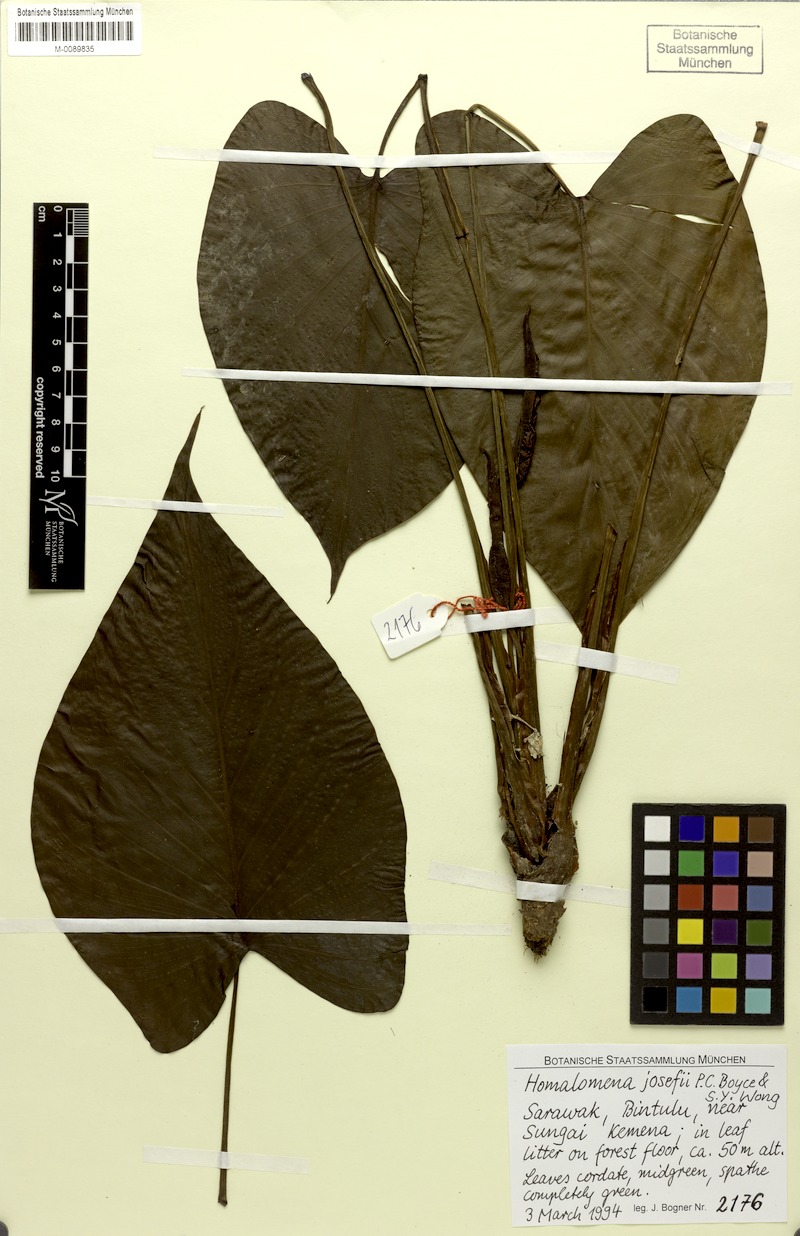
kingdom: Plantae
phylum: Tracheophyta
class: Liliopsida
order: Alismatales
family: Araceae
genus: Homalomena
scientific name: Homalomena josefii
